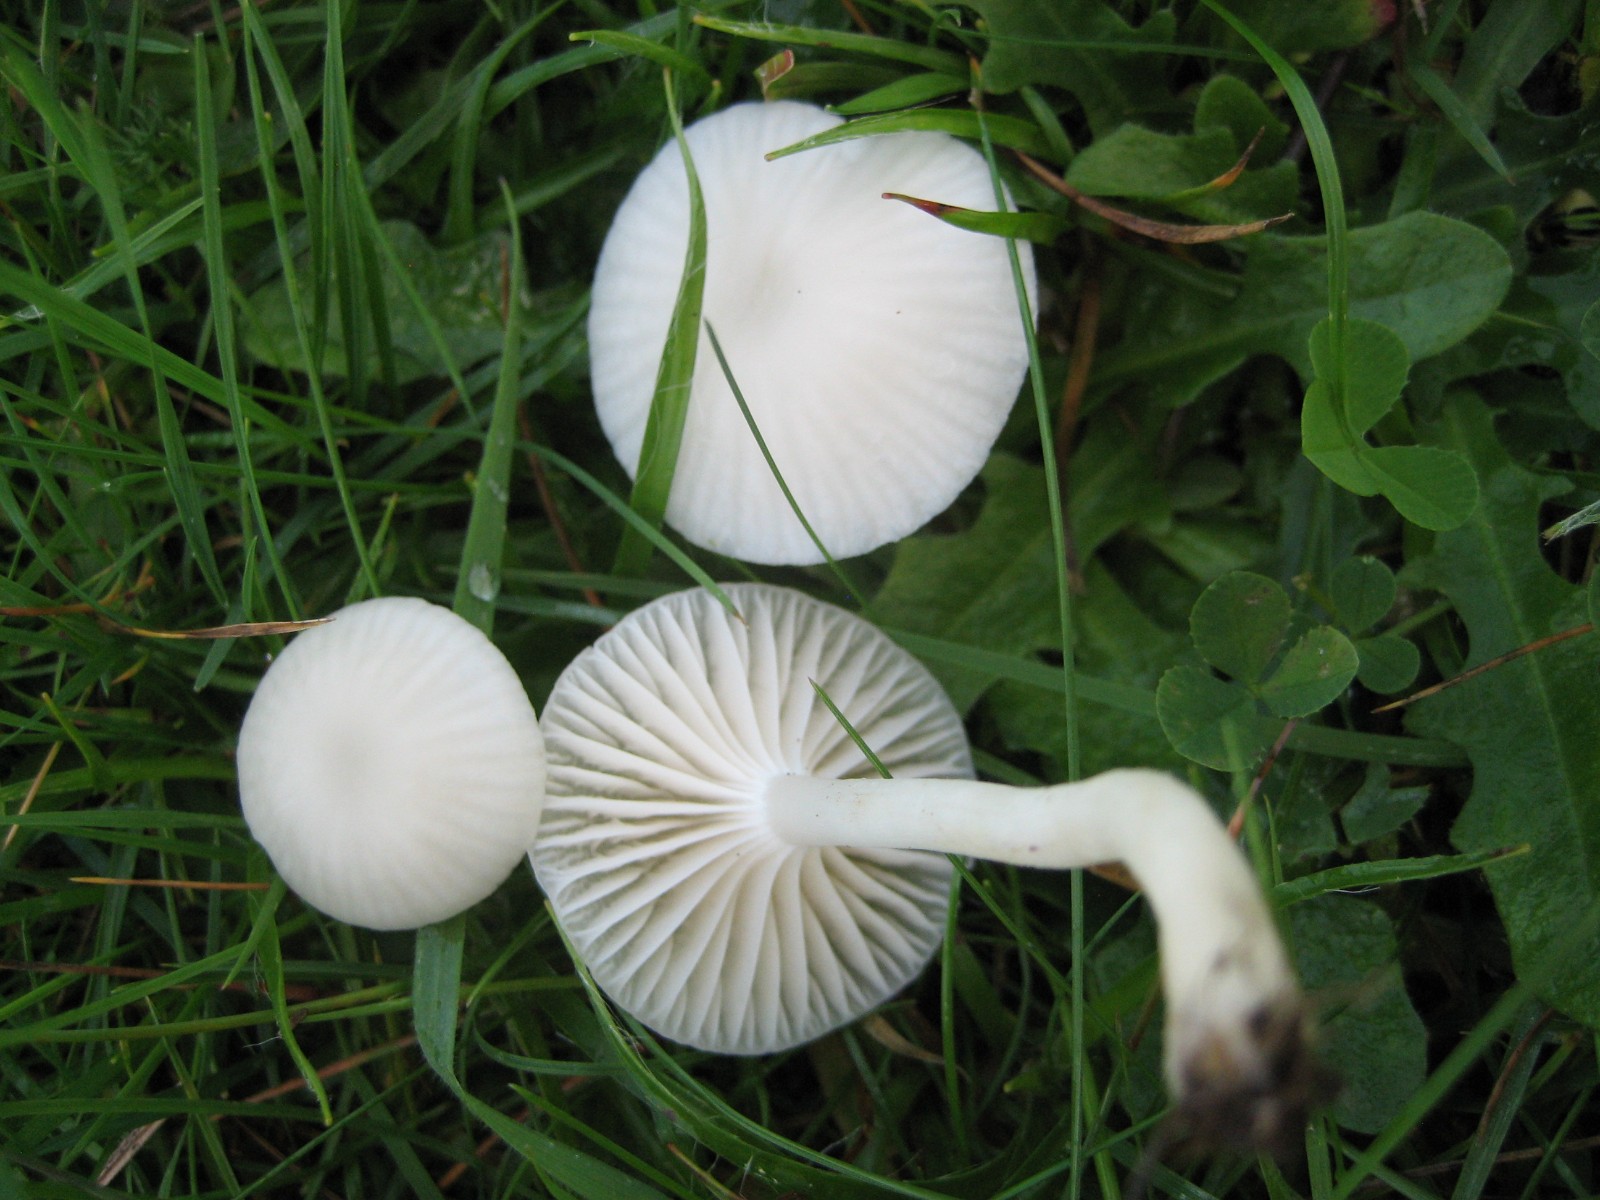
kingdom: Fungi
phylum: Basidiomycota
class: Agaricomycetes
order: Agaricales
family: Hygrophoraceae
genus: Cuphophyllus
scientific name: Cuphophyllus virgineus
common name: snehvid vokshat
